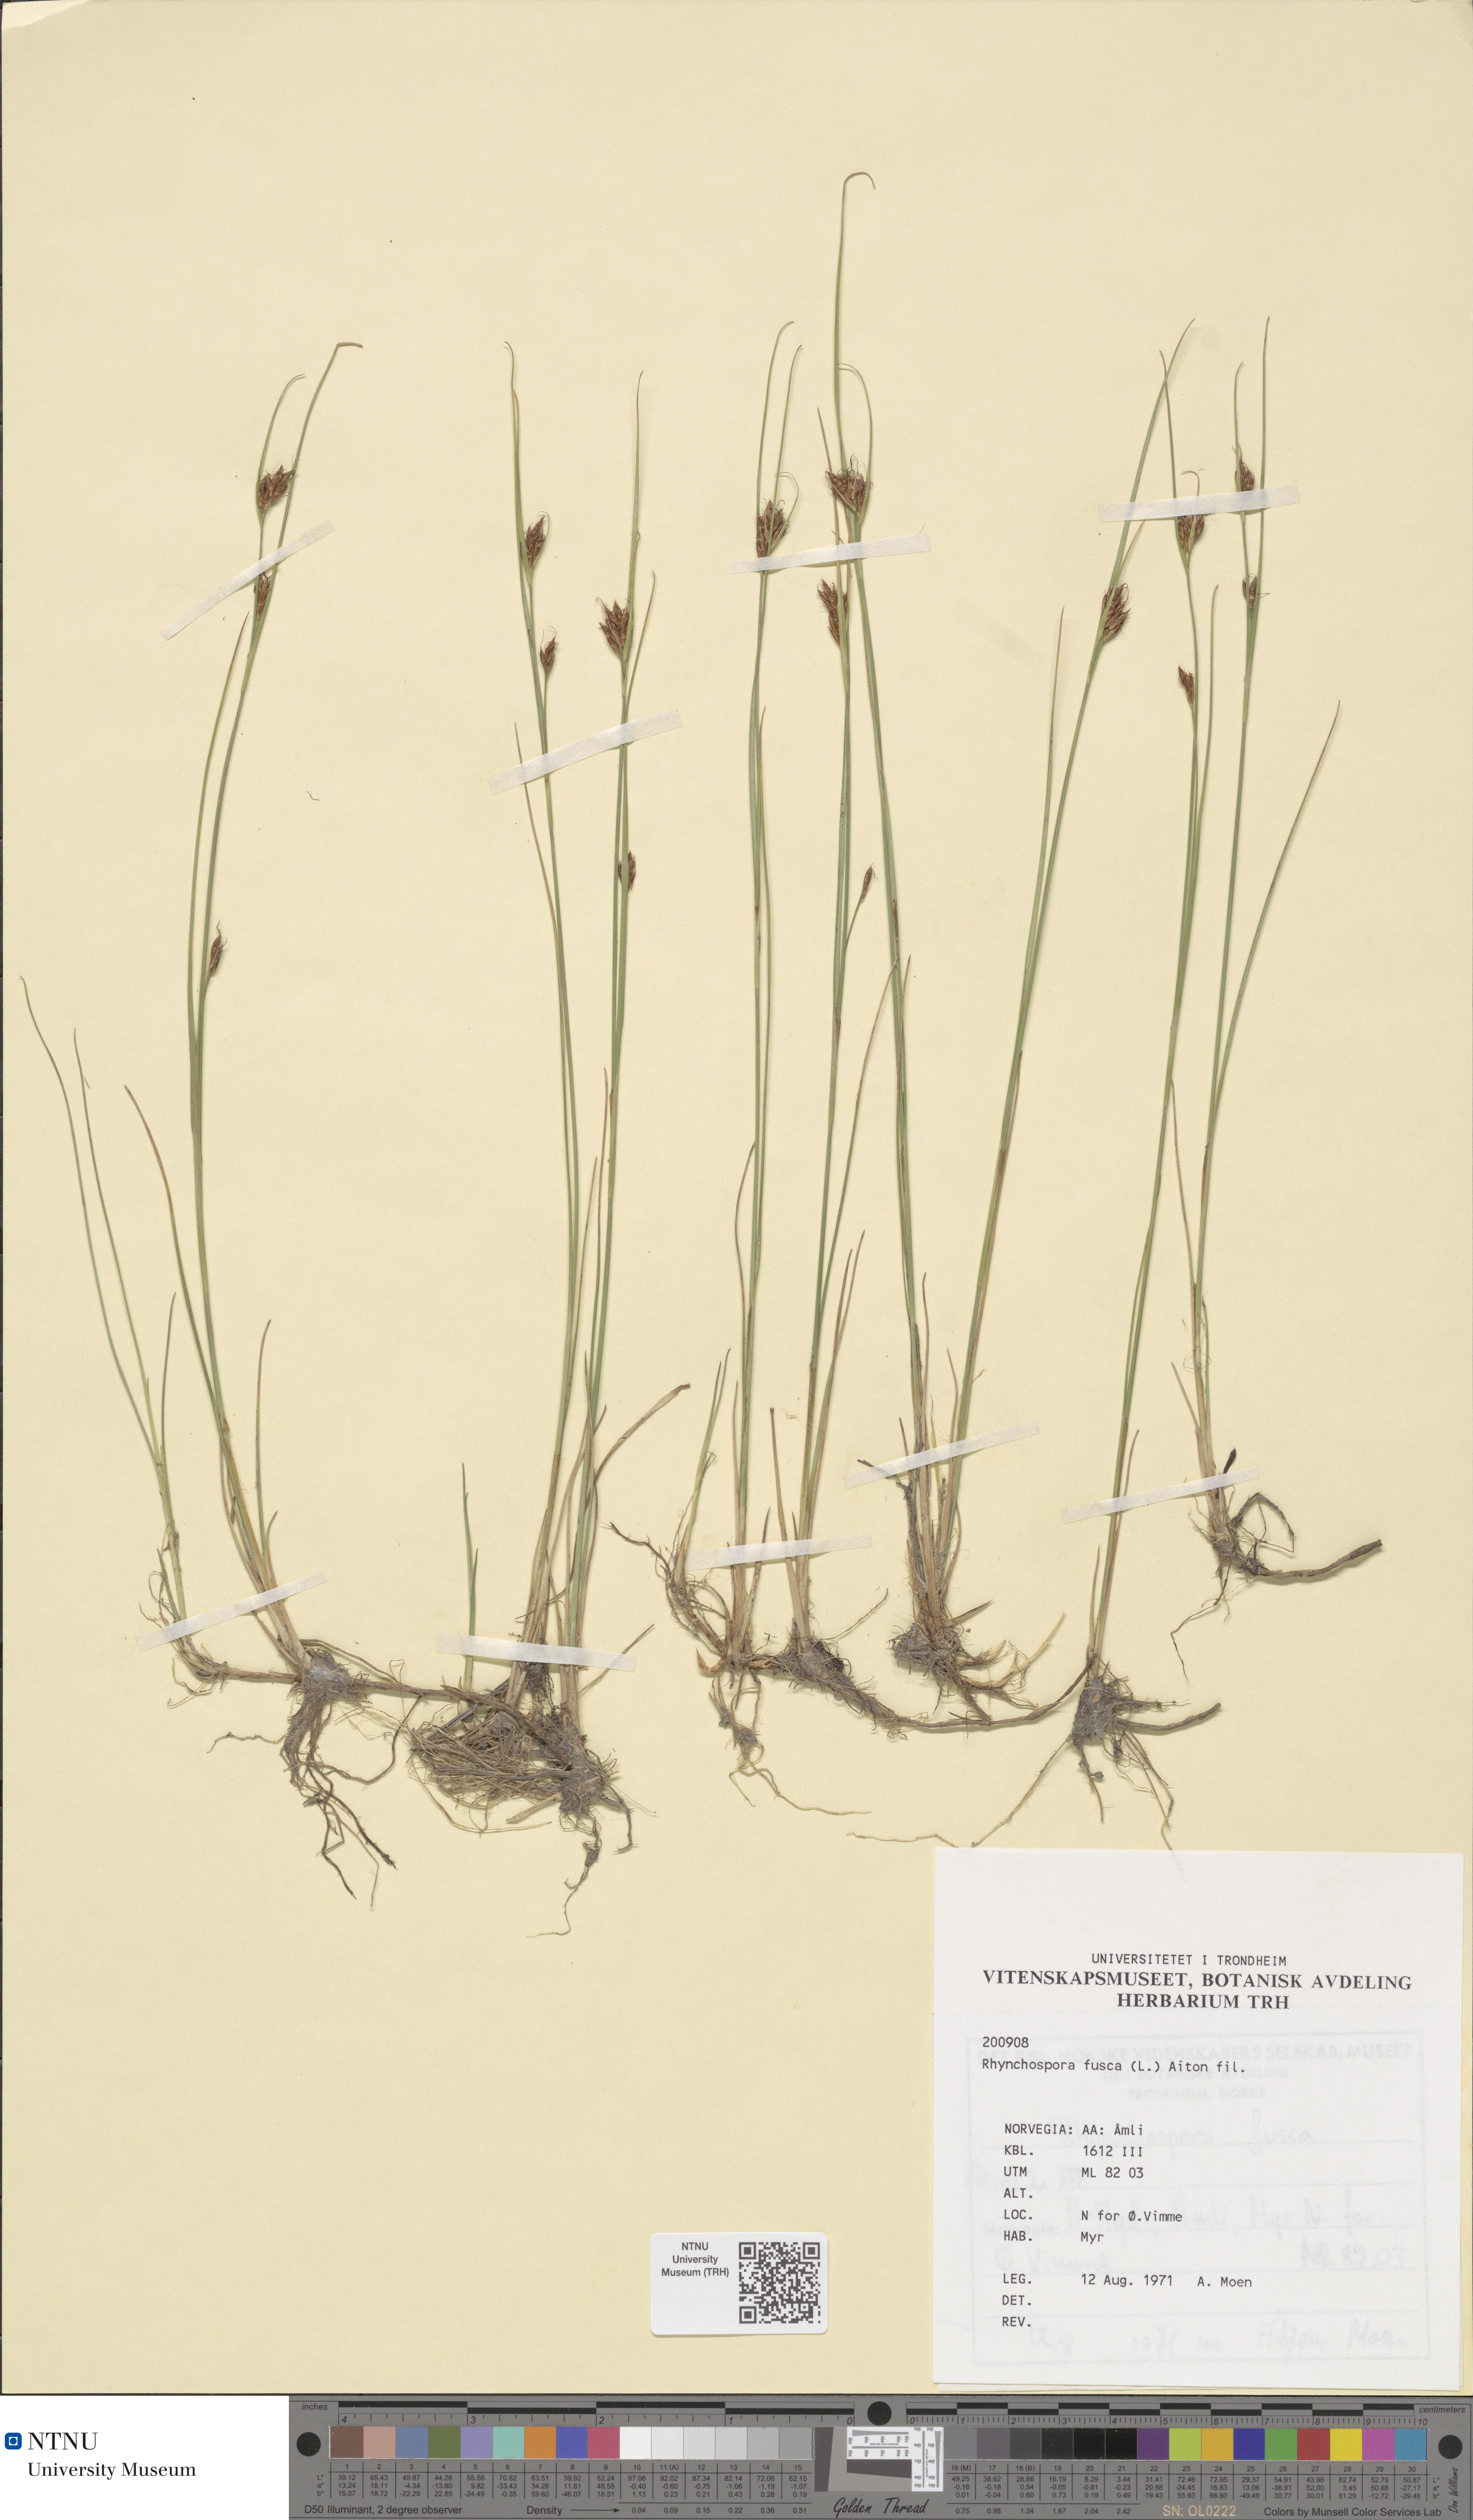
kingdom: Plantae
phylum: Tracheophyta
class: Liliopsida
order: Poales
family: Cyperaceae
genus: Rhynchospora
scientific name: Rhynchospora fusca
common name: Brown beak-sedge
